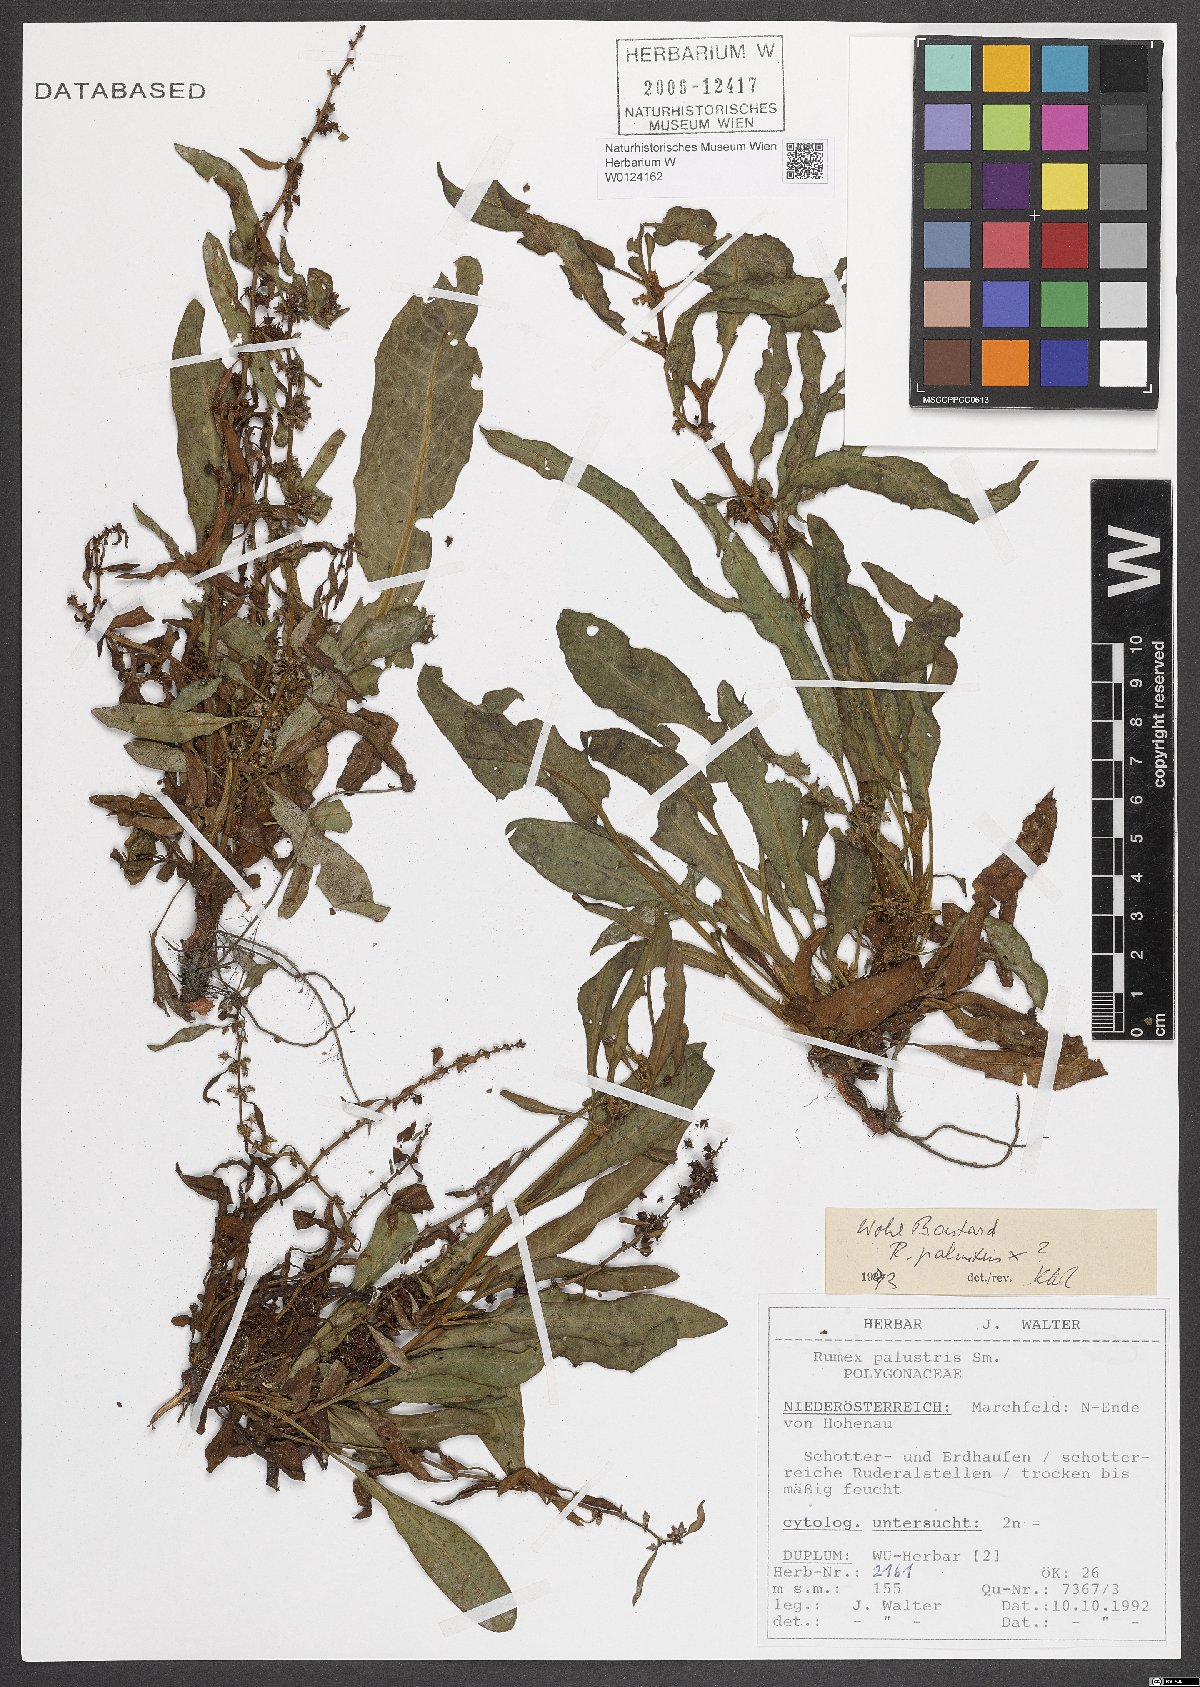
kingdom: Plantae
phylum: Tracheophyta
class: Magnoliopsida
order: Caryophyllales
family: Polygonaceae
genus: Rumex
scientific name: Rumex palustris
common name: Marsh dock
